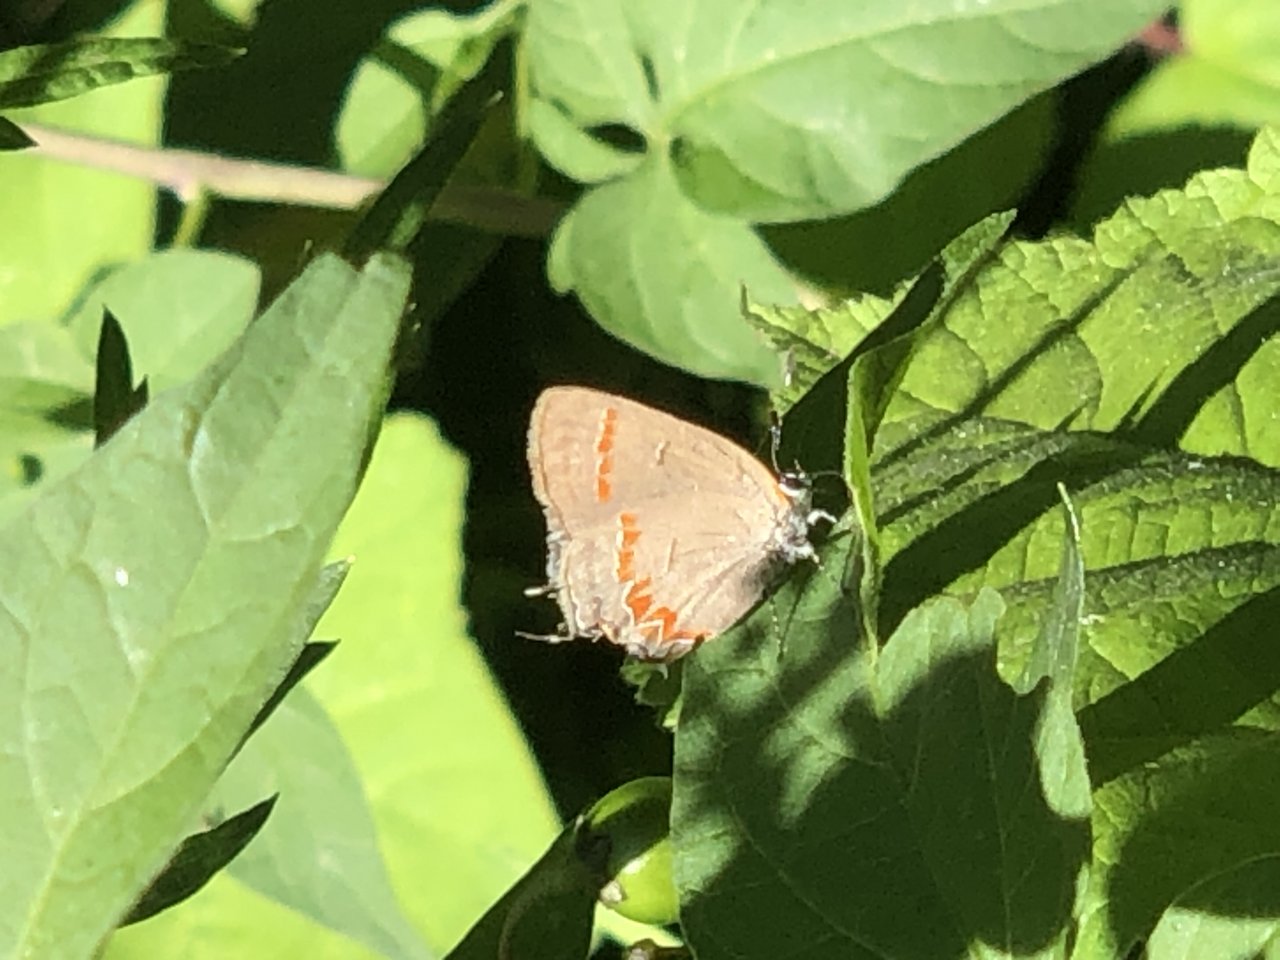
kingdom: Animalia
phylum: Arthropoda
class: Insecta
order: Lepidoptera
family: Lycaenidae
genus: Calycopis
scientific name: Calycopis cecrops
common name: Red-banded Hairstreak
